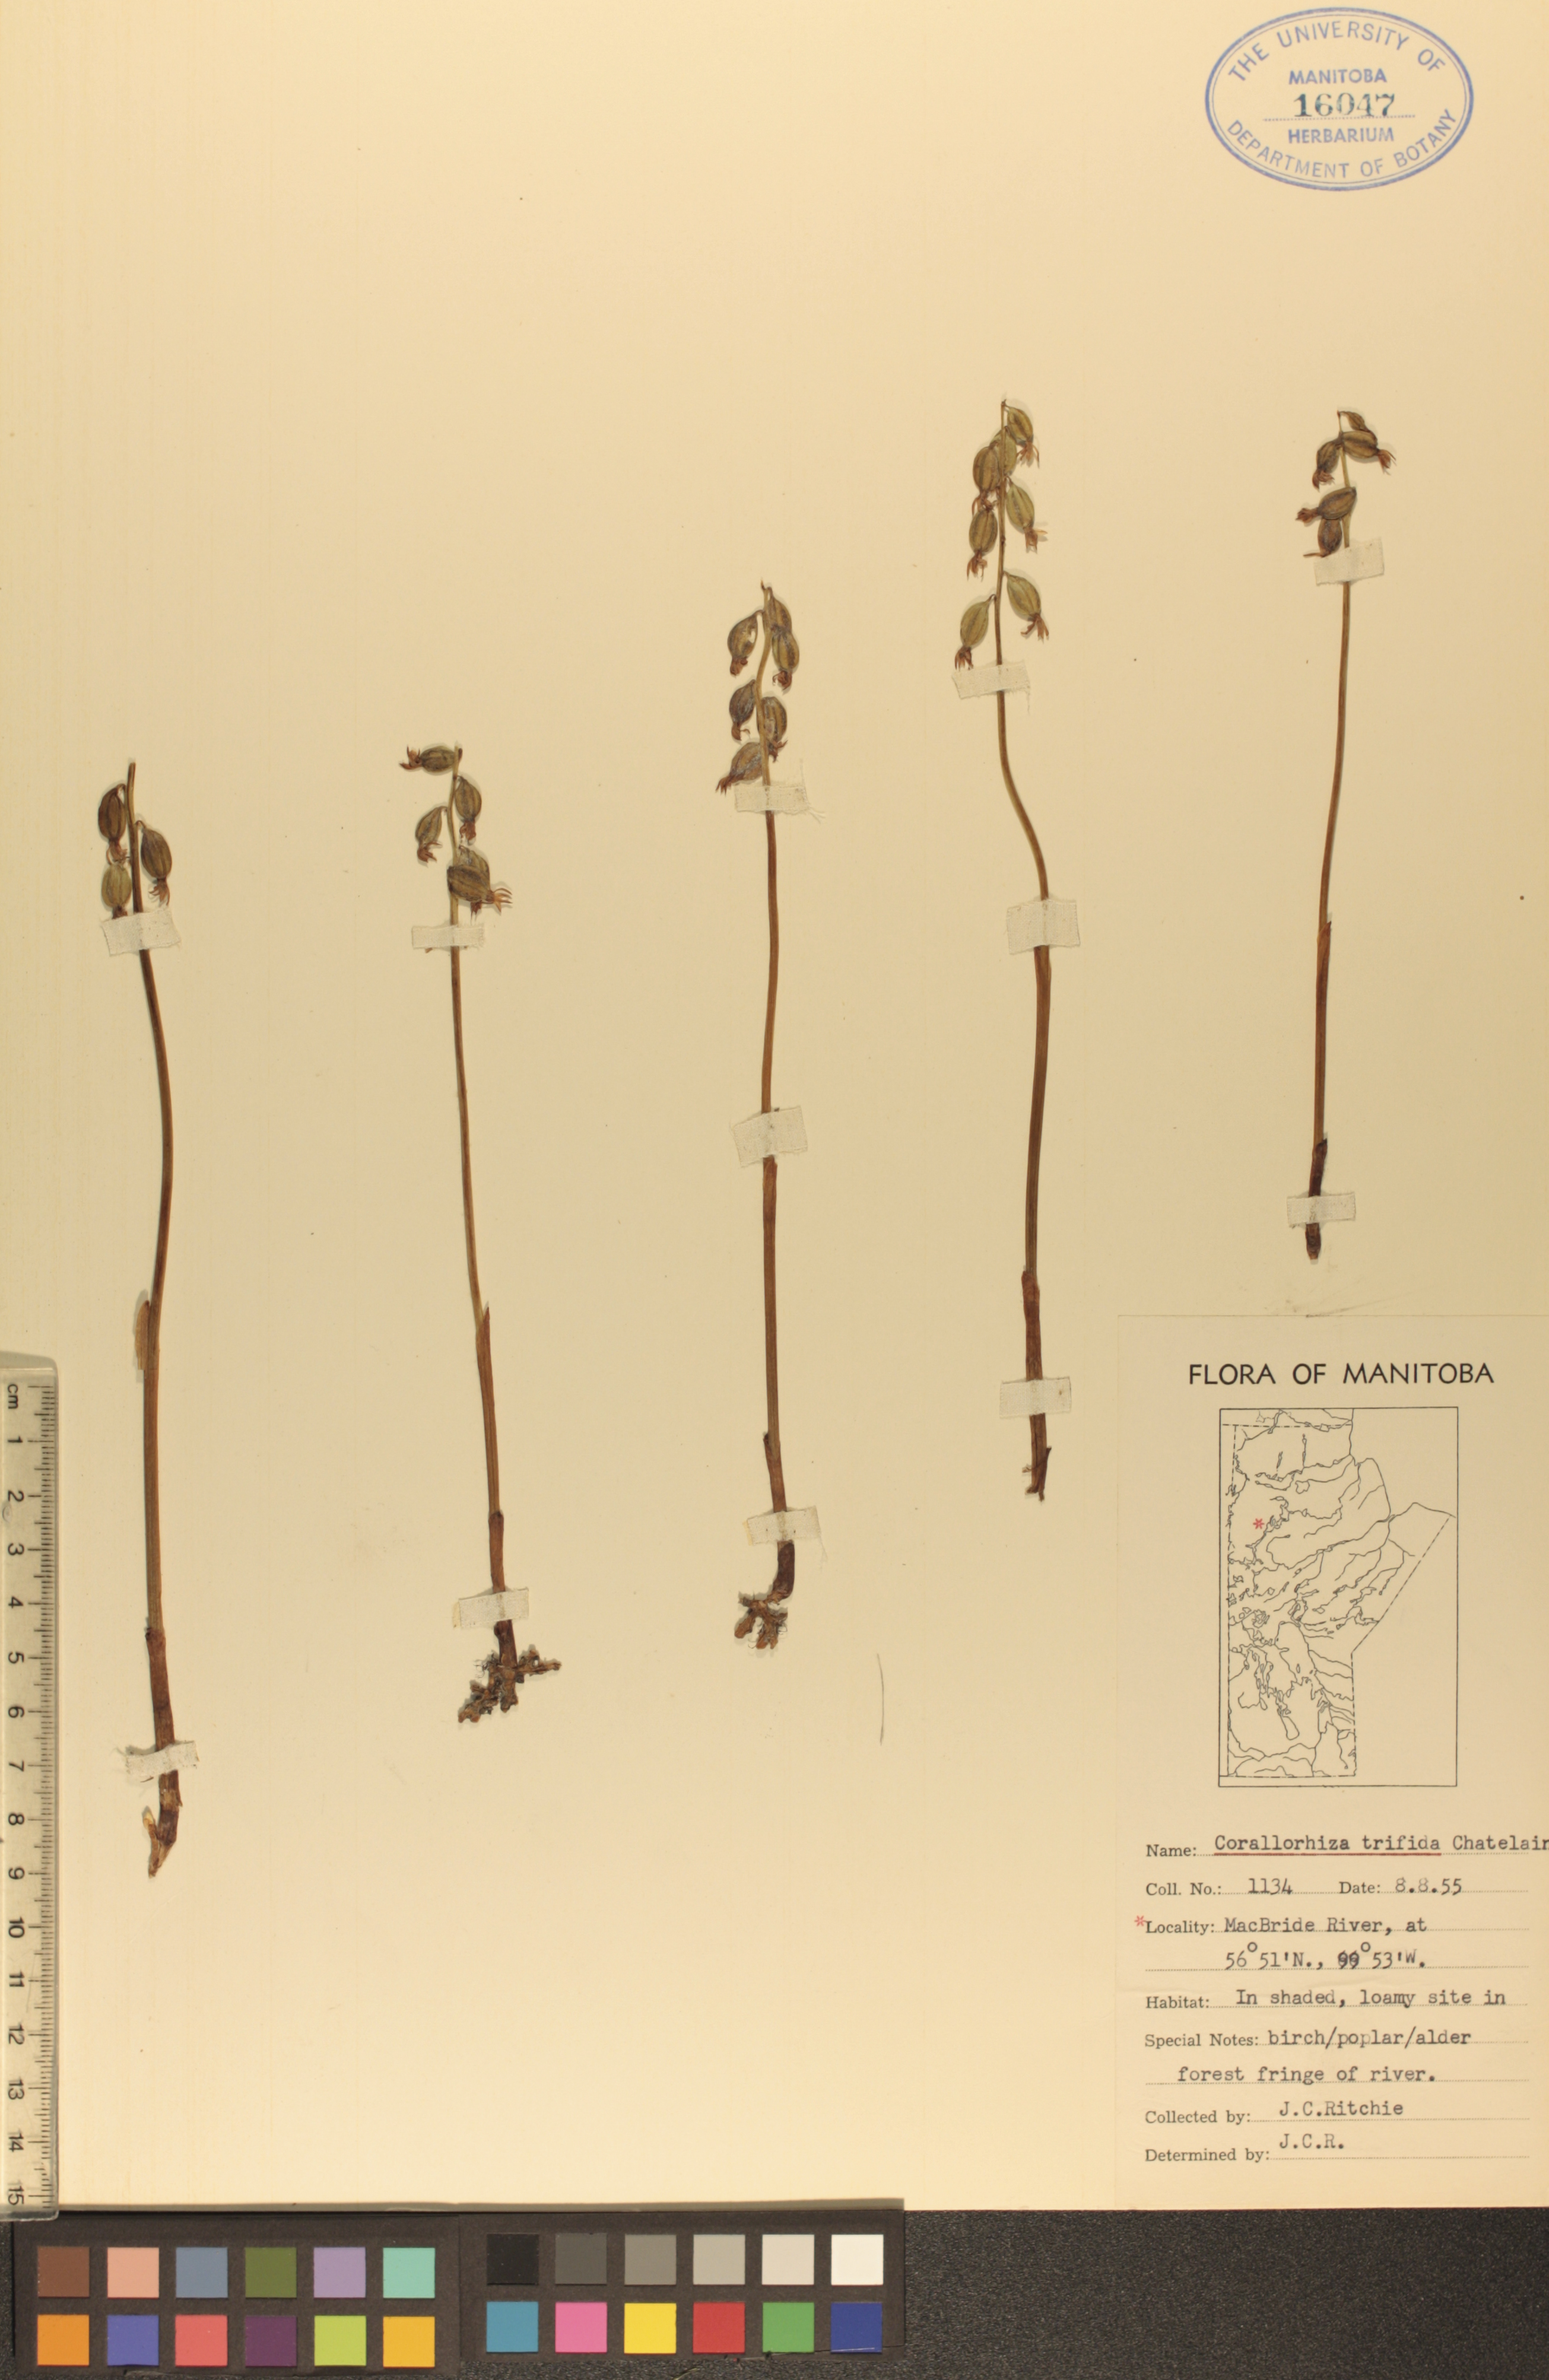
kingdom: Plantae
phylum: Tracheophyta
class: Liliopsida
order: Asparagales
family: Orchidaceae
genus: Corallorhiza
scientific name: Corallorhiza trifida
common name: Yellow coralroot
